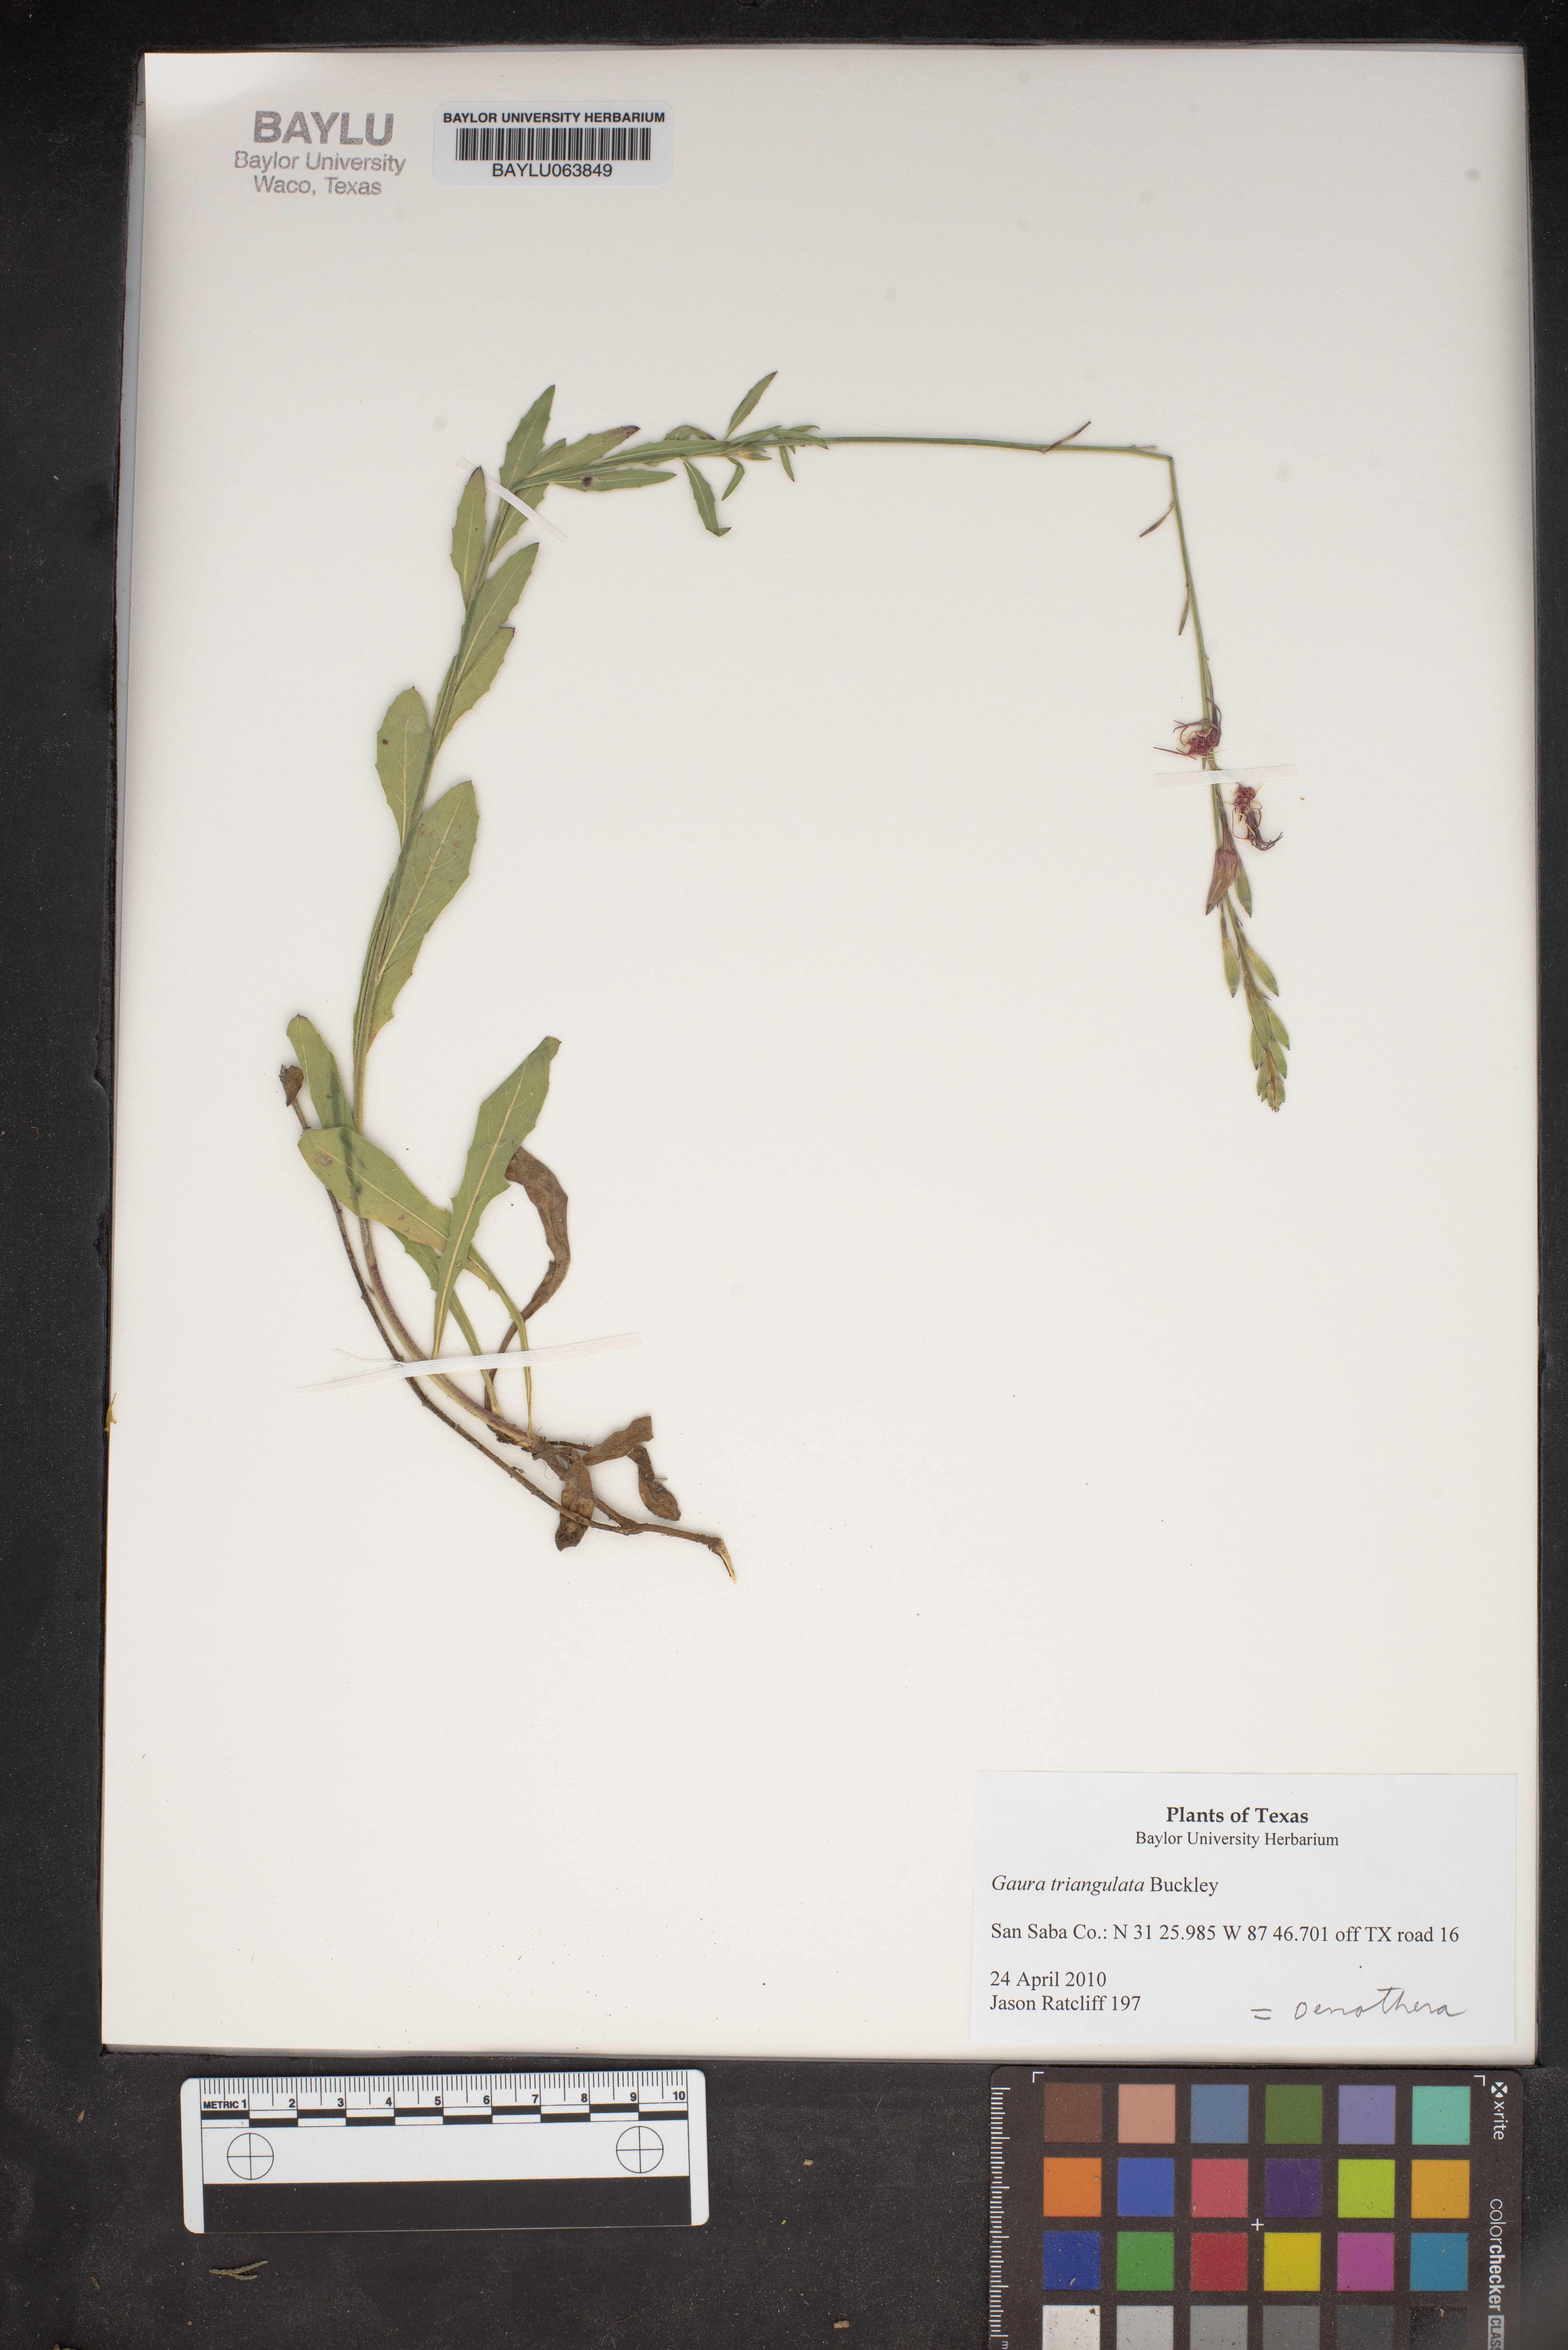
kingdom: Plantae
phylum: Tracheophyta
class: Magnoliopsida
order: Myrtales
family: Onagraceae
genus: Oenothera
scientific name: Oenothera triangulata
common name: Prairie beeblossom
